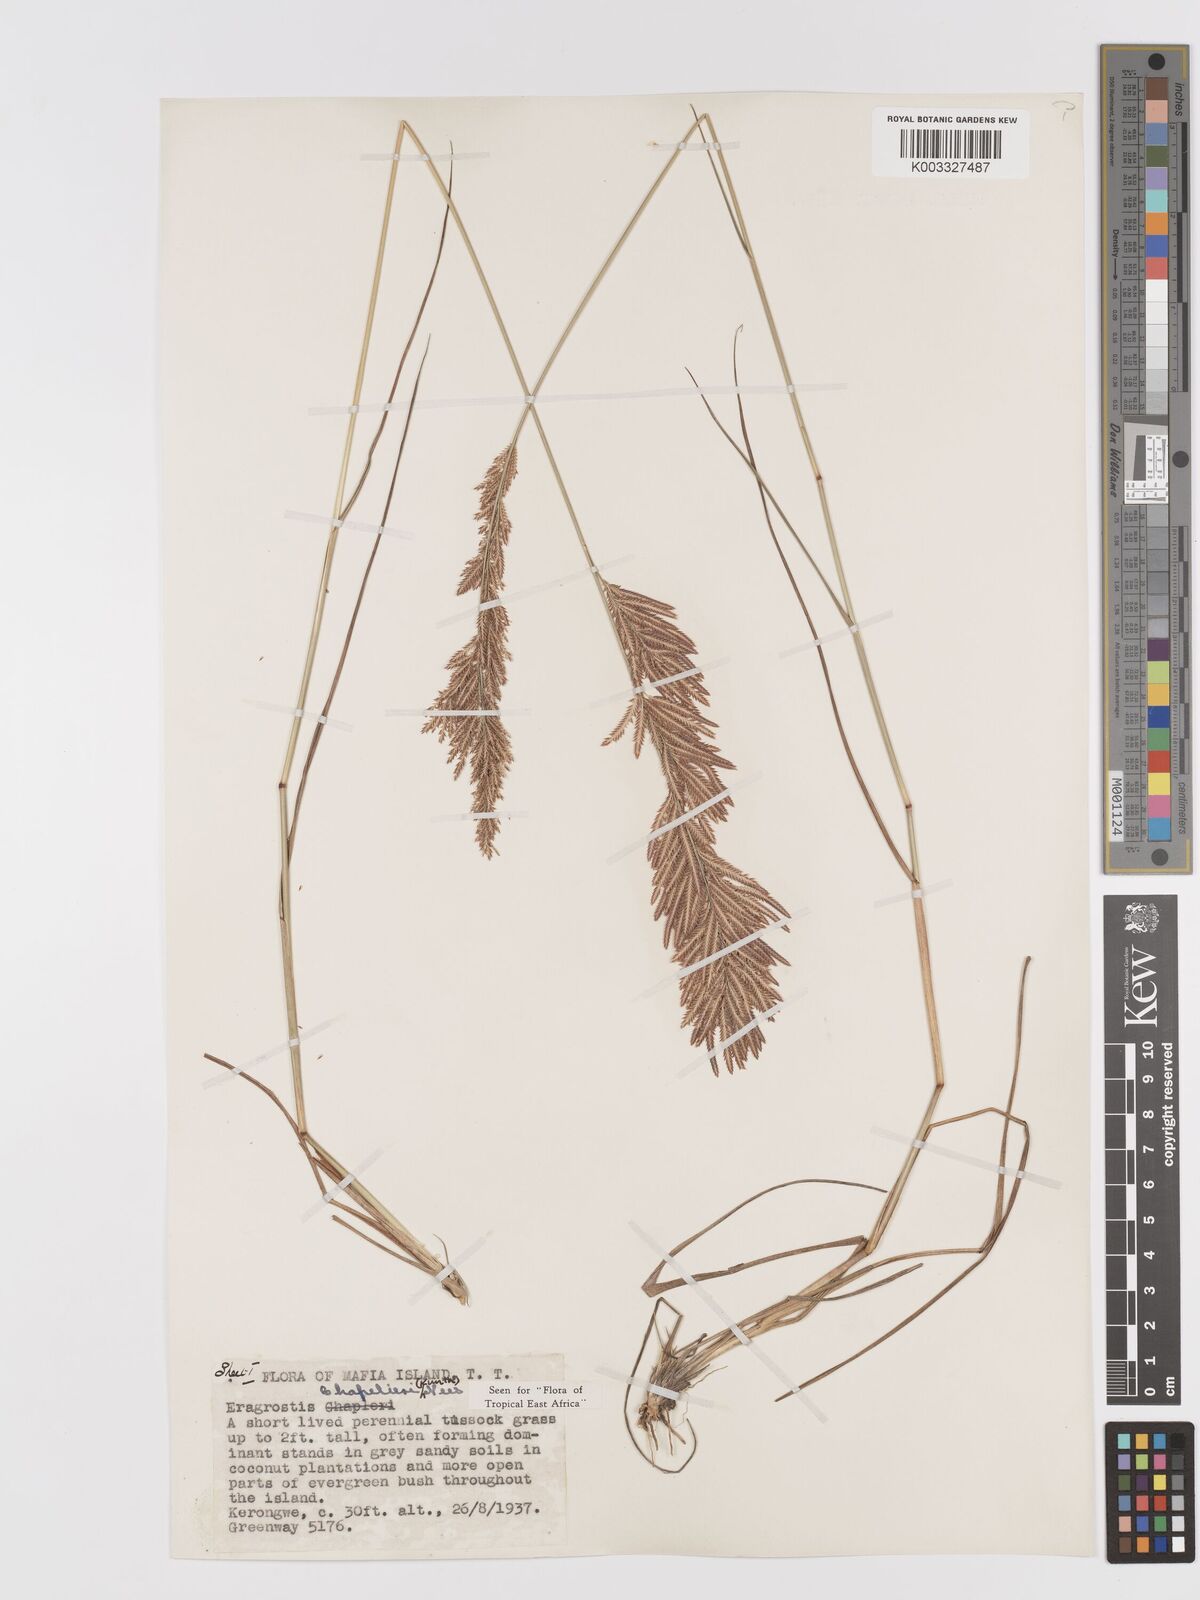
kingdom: Plantae
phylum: Tracheophyta
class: Liliopsida
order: Poales
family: Poaceae
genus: Eragrostis
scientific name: Eragrostis chapelieri
